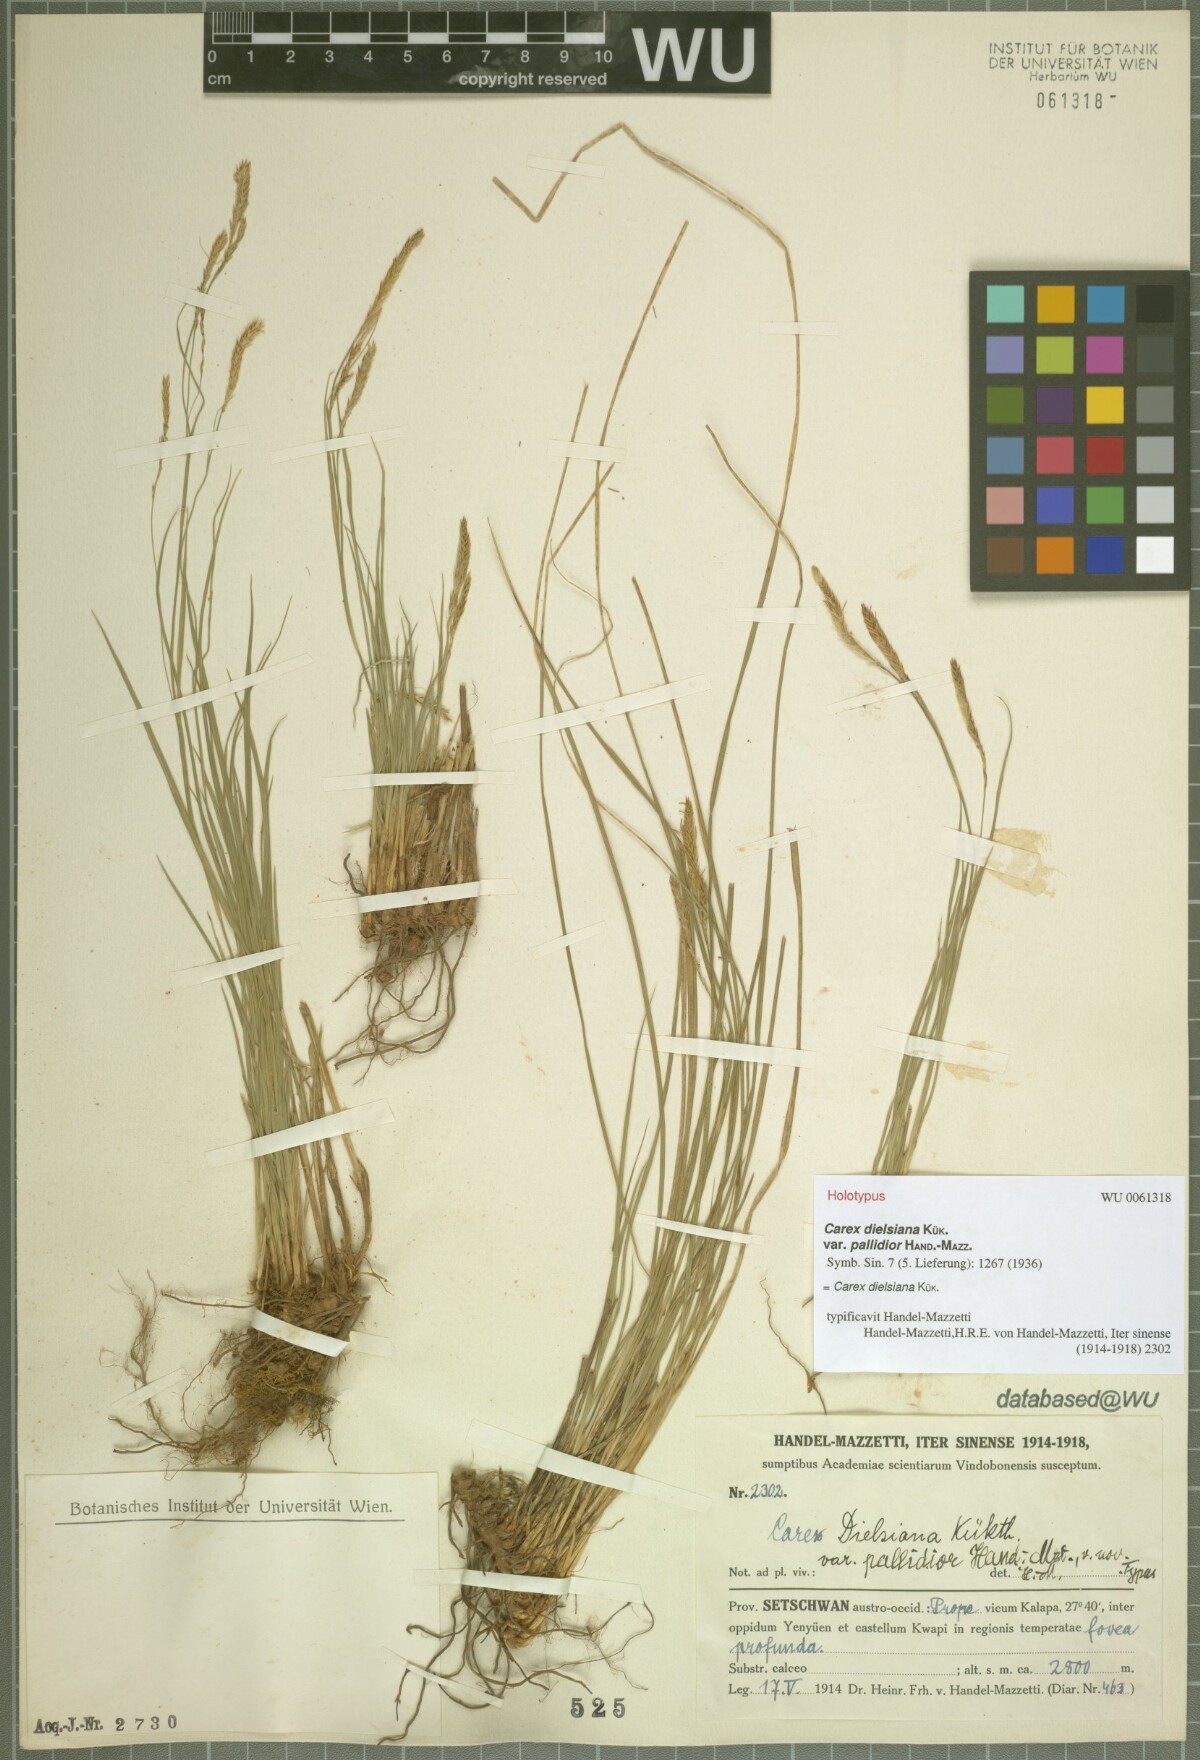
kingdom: Plantae
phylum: Tracheophyta
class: Liliopsida
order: Poales
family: Cyperaceae
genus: Carex
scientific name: Carex dielsiana
